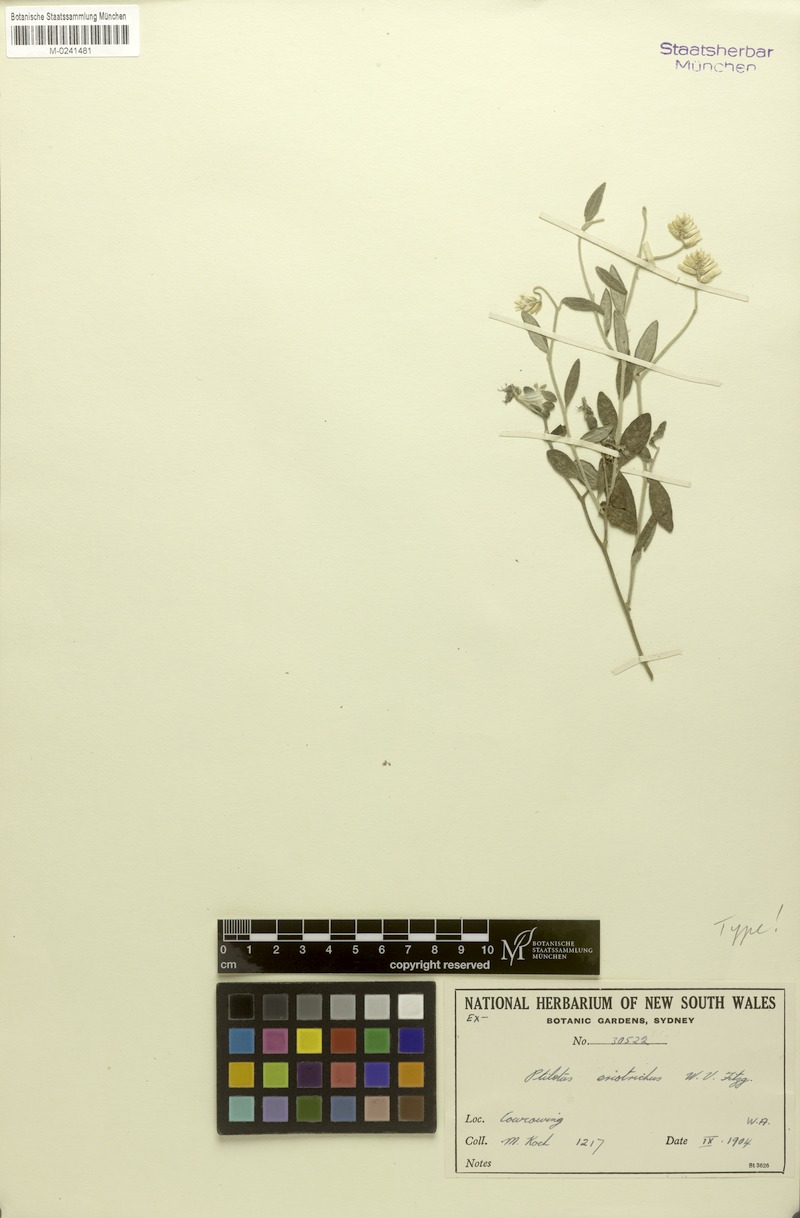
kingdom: Plantae
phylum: Tracheophyta
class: Magnoliopsida
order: Caryophyllales
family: Amaranthaceae
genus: Ptilotus
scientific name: Ptilotus eriotrichus
